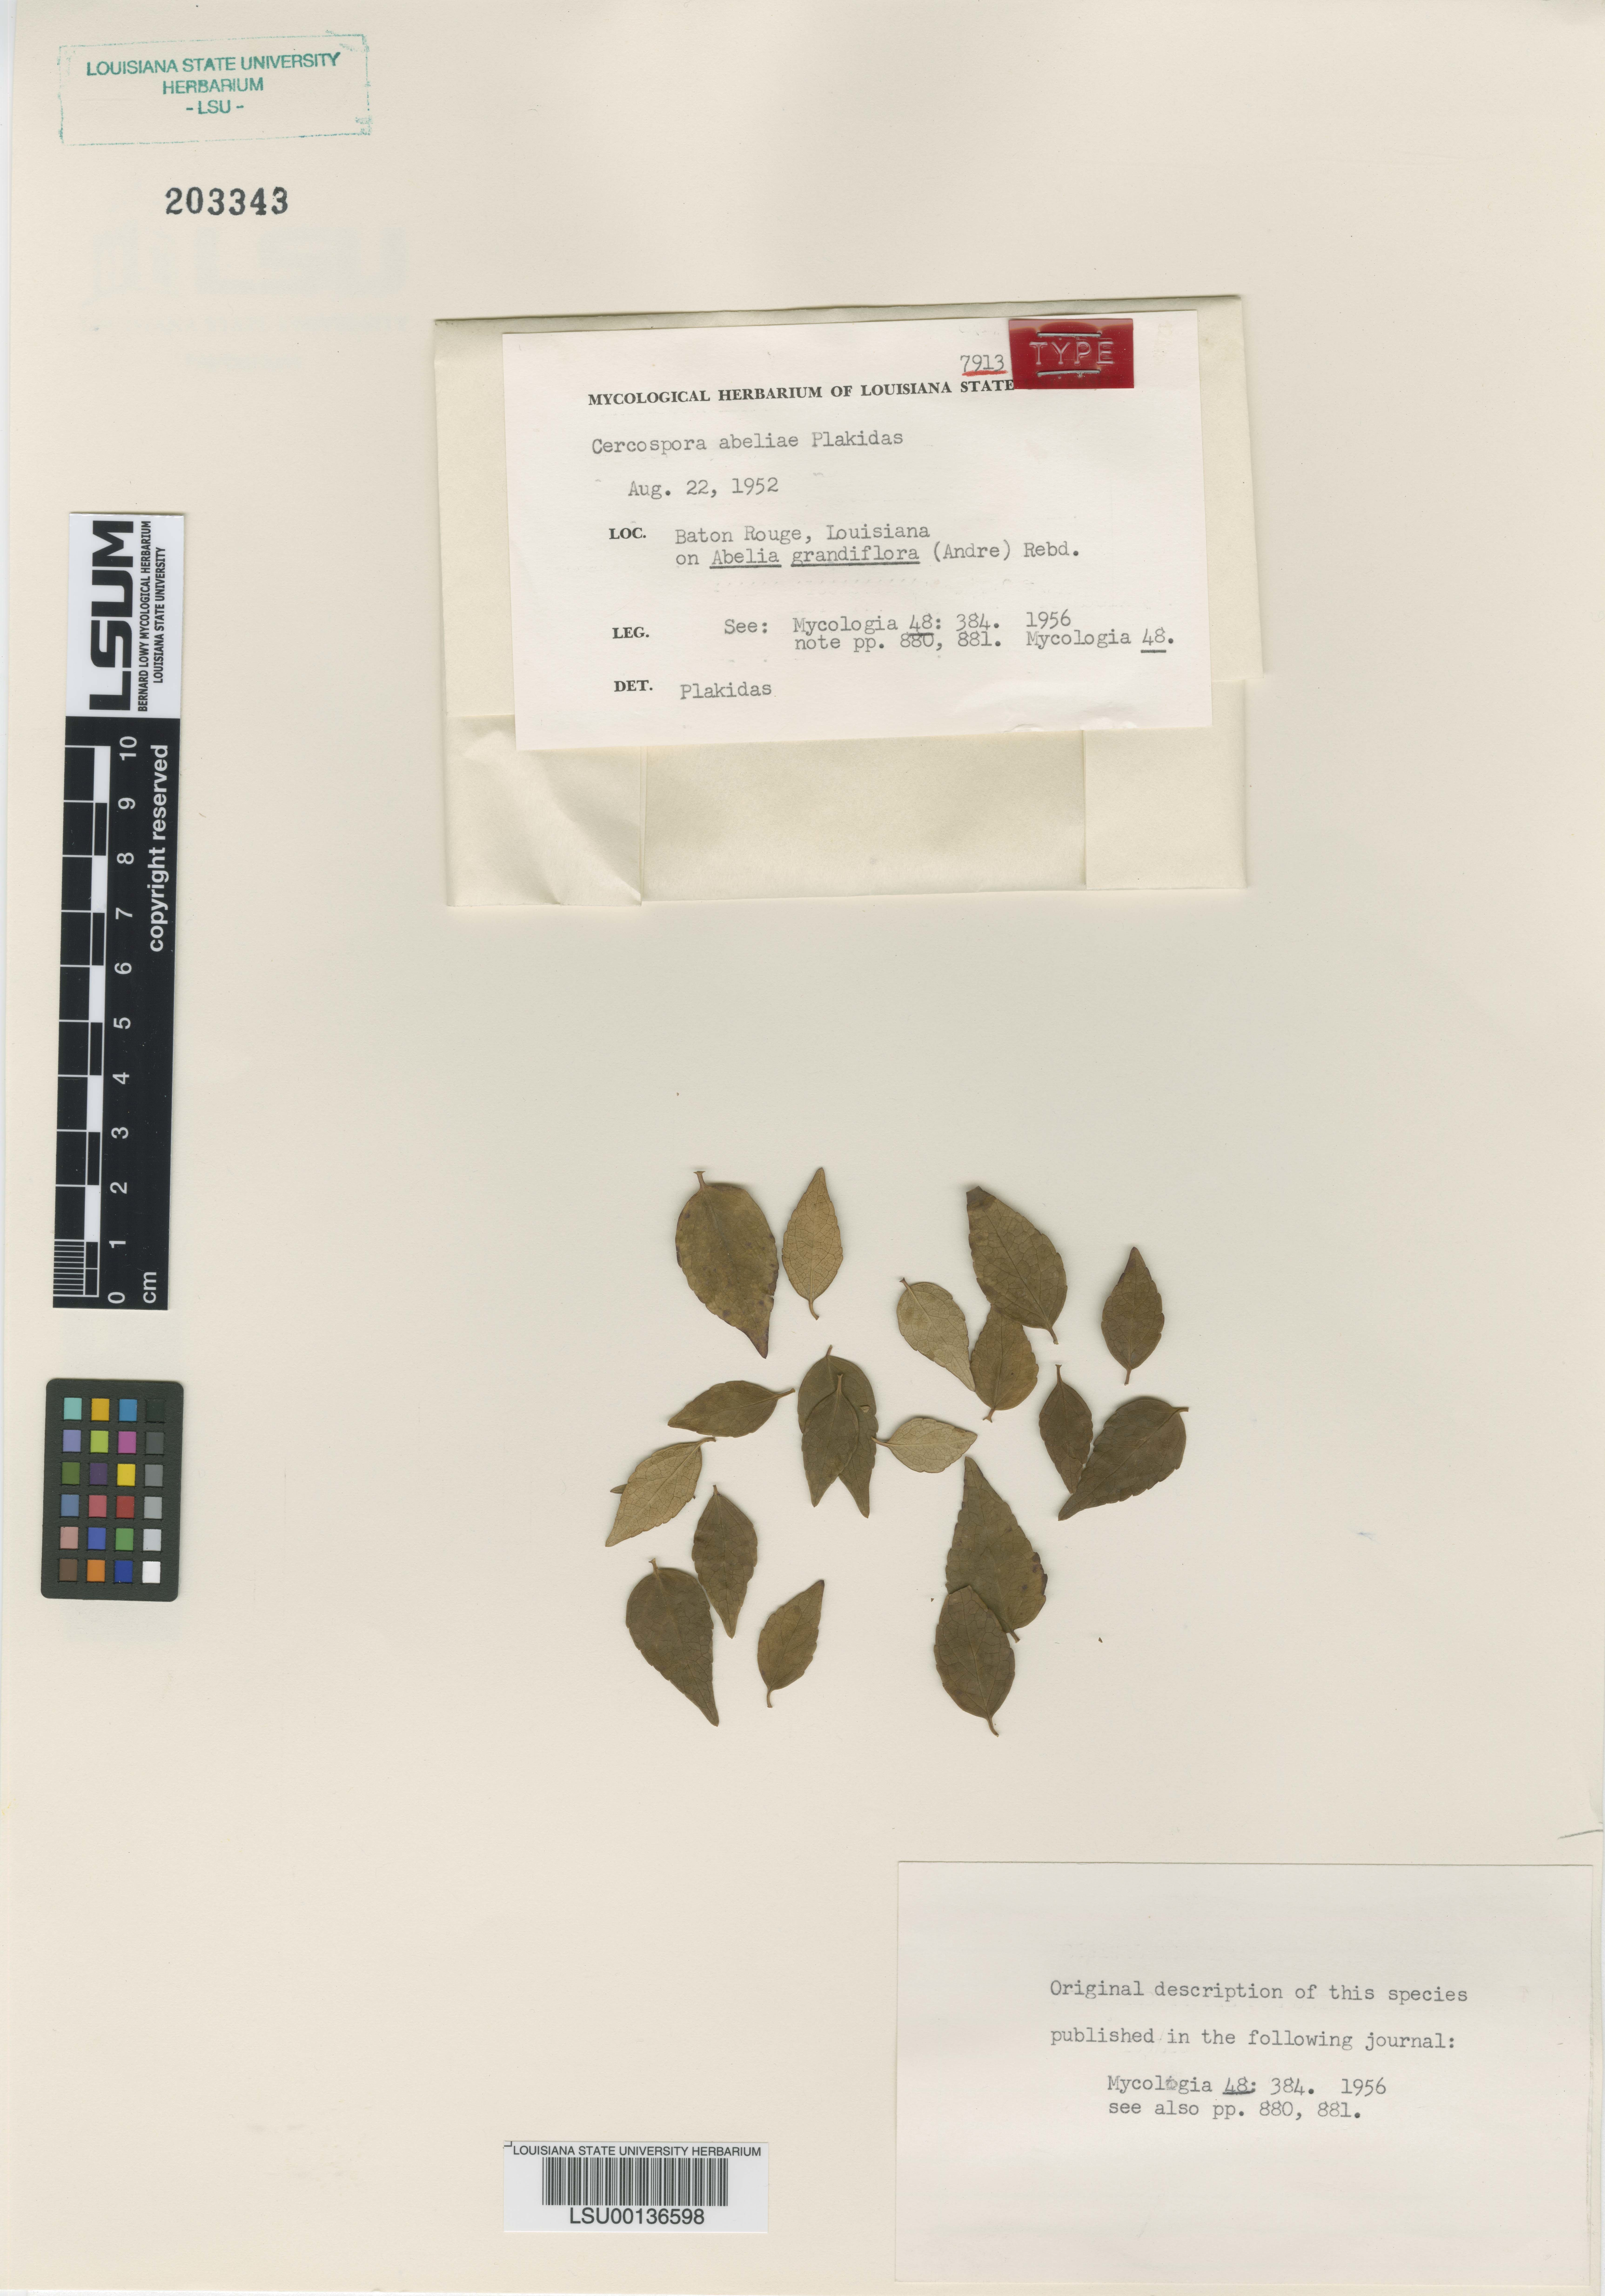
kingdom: Fungi
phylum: Ascomycota
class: Dothideomycetes
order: Mycosphaerellales
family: Mycosphaerellaceae
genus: Pseudocercospora
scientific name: Pseudocercospora abeliae
